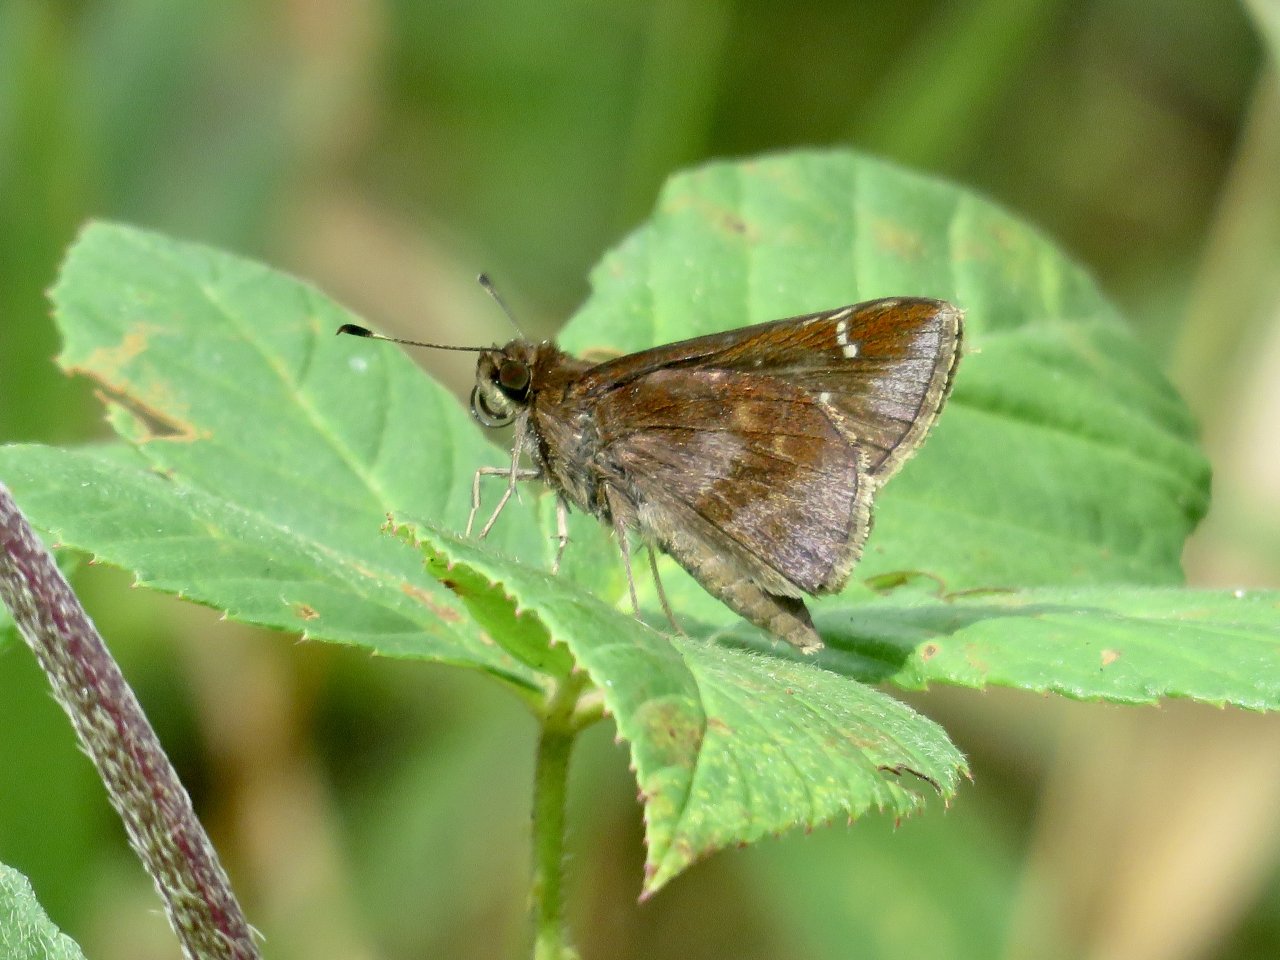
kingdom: Animalia
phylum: Arthropoda
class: Insecta
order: Lepidoptera
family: Hesperiidae
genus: Lerema
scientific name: Lerema accius
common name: Clouded Skipper
